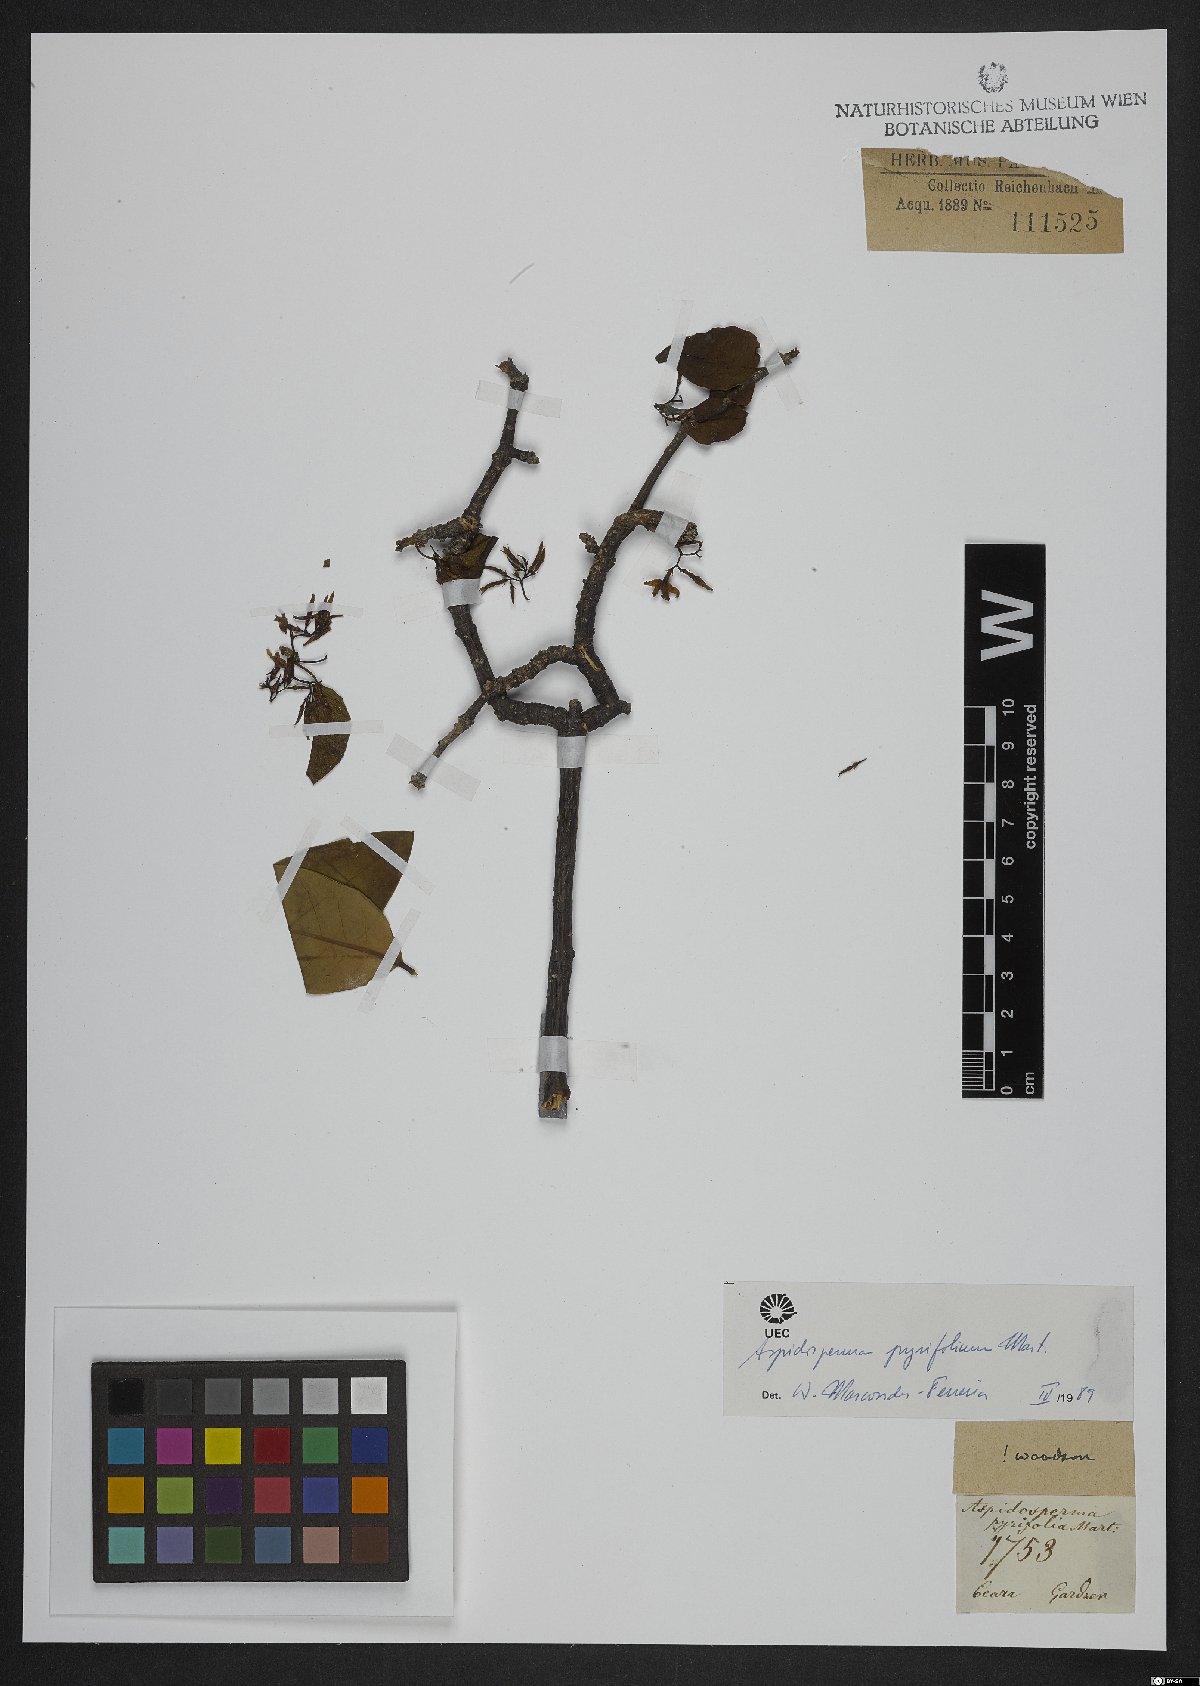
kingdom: Plantae
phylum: Tracheophyta
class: Magnoliopsida
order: Gentianales
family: Apocynaceae
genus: Aspidosperma
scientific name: Aspidosperma pyrifolium
